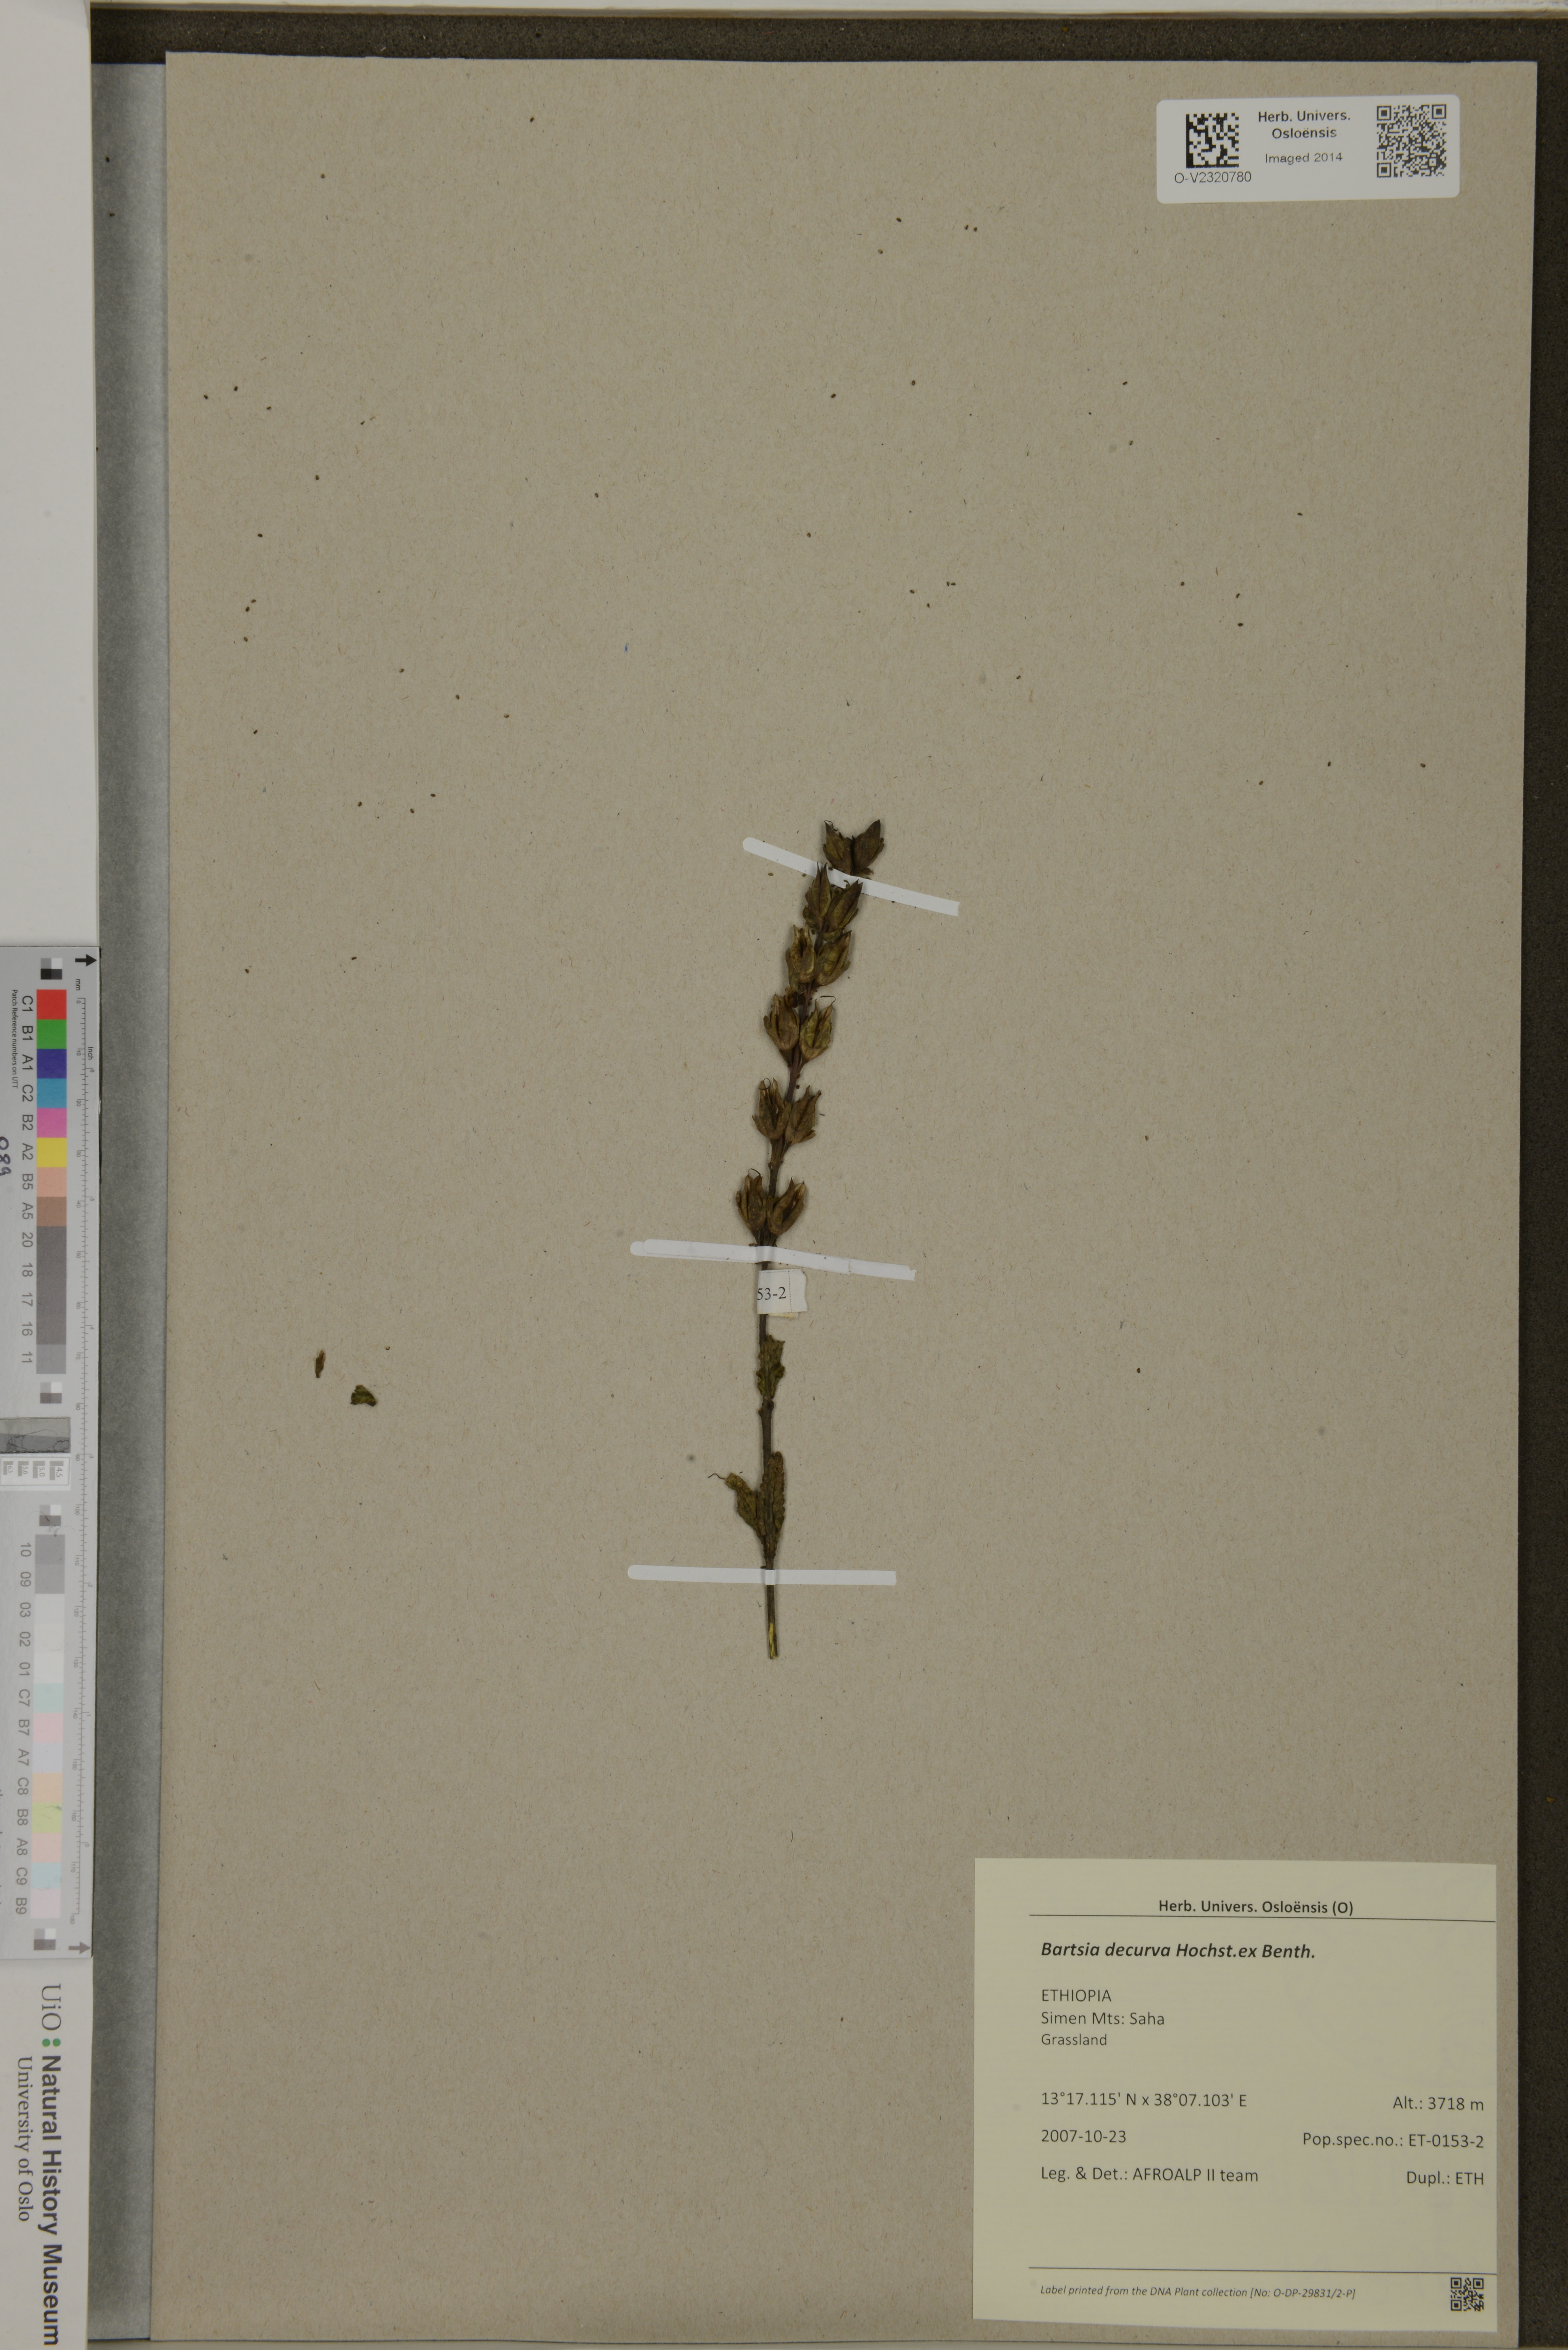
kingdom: Plantae
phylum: Tracheophyta
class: Magnoliopsida
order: Lamiales
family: Orobanchaceae
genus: Hedbergia
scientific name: Hedbergia decurva
